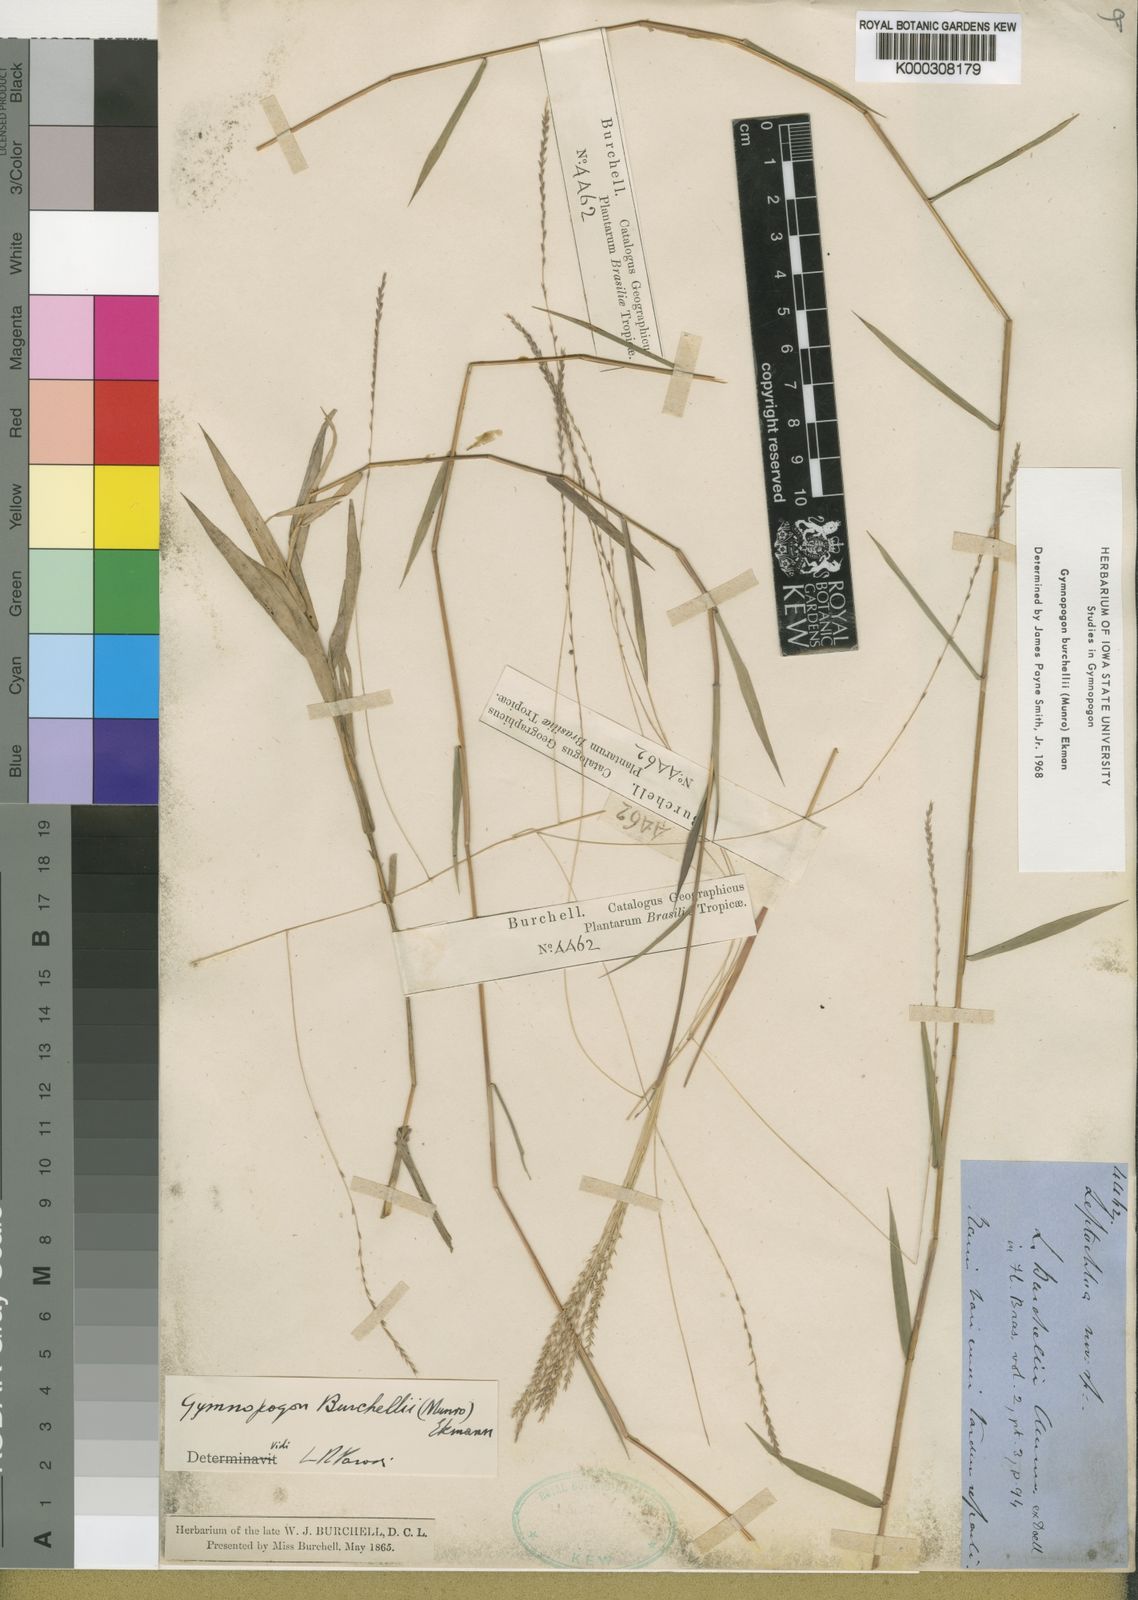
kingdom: Plantae
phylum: Tracheophyta
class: Liliopsida
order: Poales
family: Poaceae
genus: Gymnopogon
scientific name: Gymnopogon burchellii
